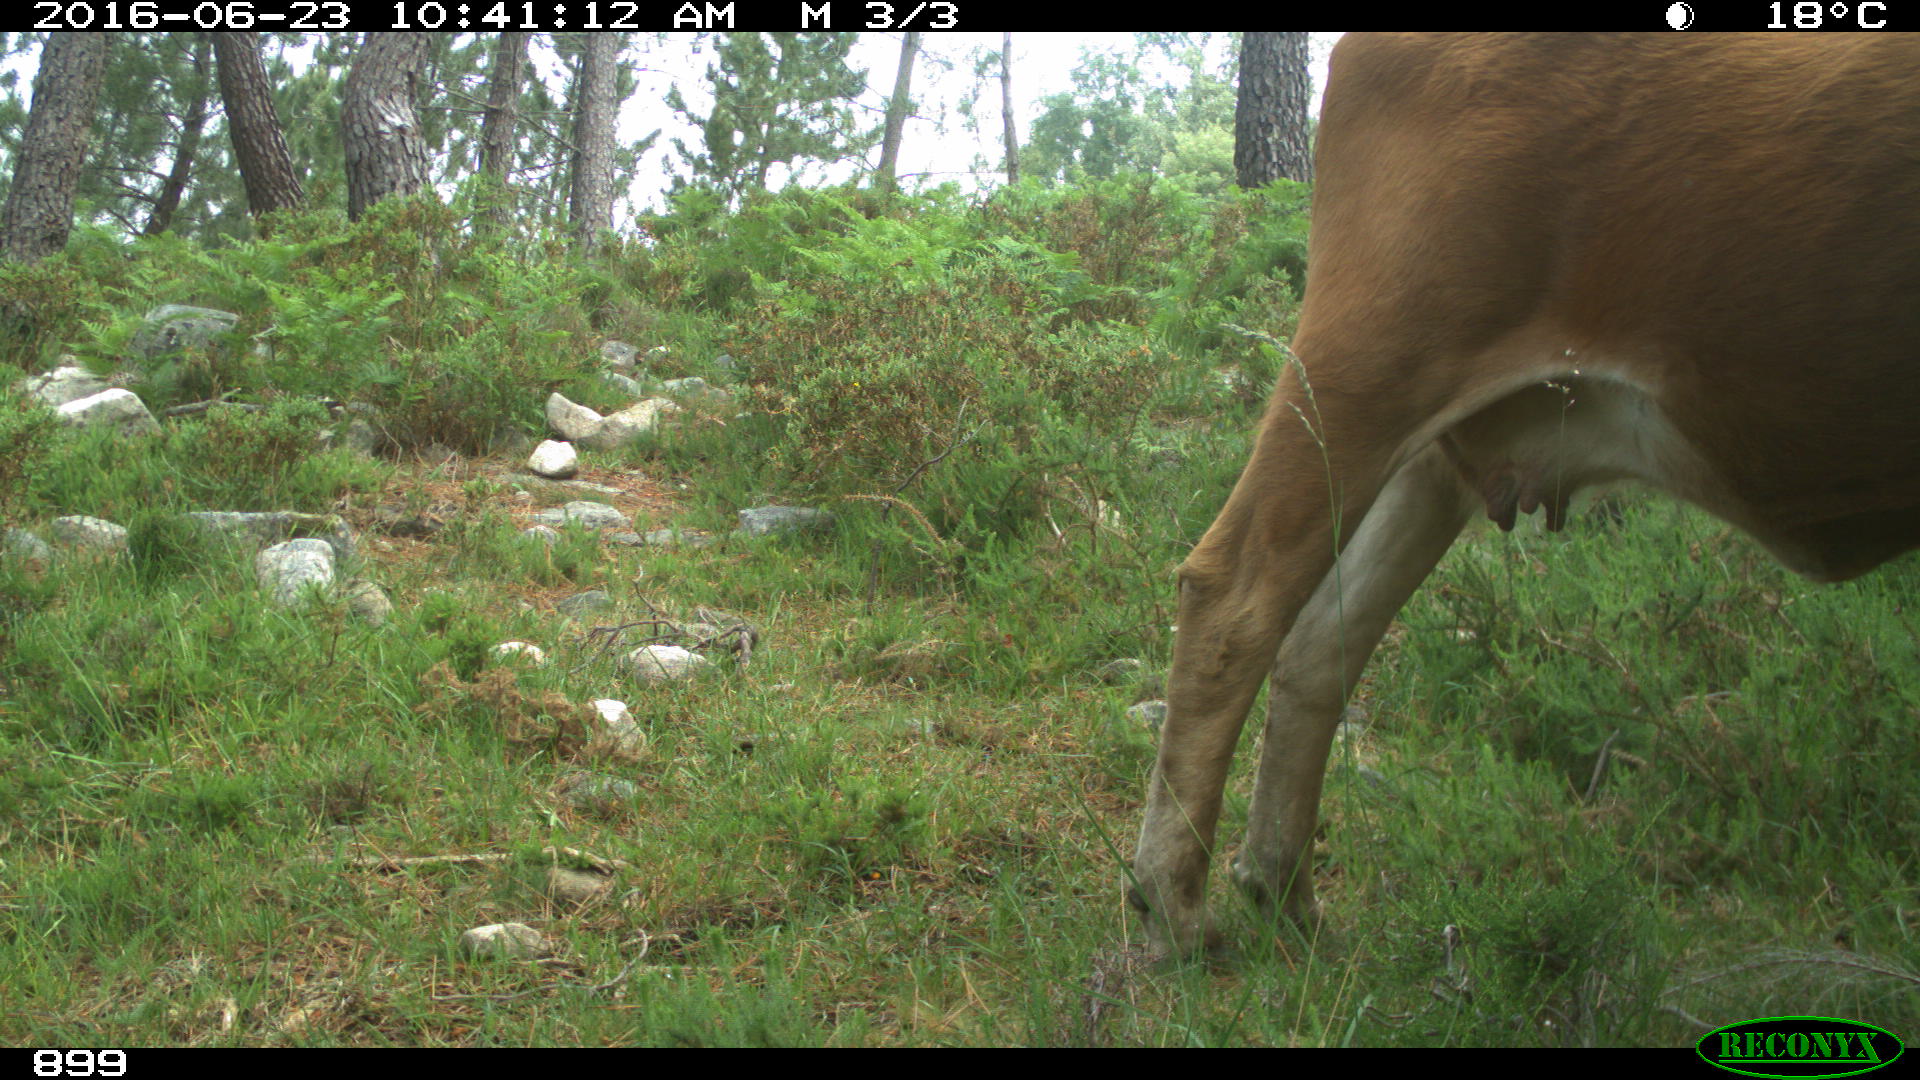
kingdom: Animalia
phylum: Chordata
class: Mammalia
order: Artiodactyla
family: Bovidae
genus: Bos
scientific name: Bos taurus
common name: Domesticated cattle
